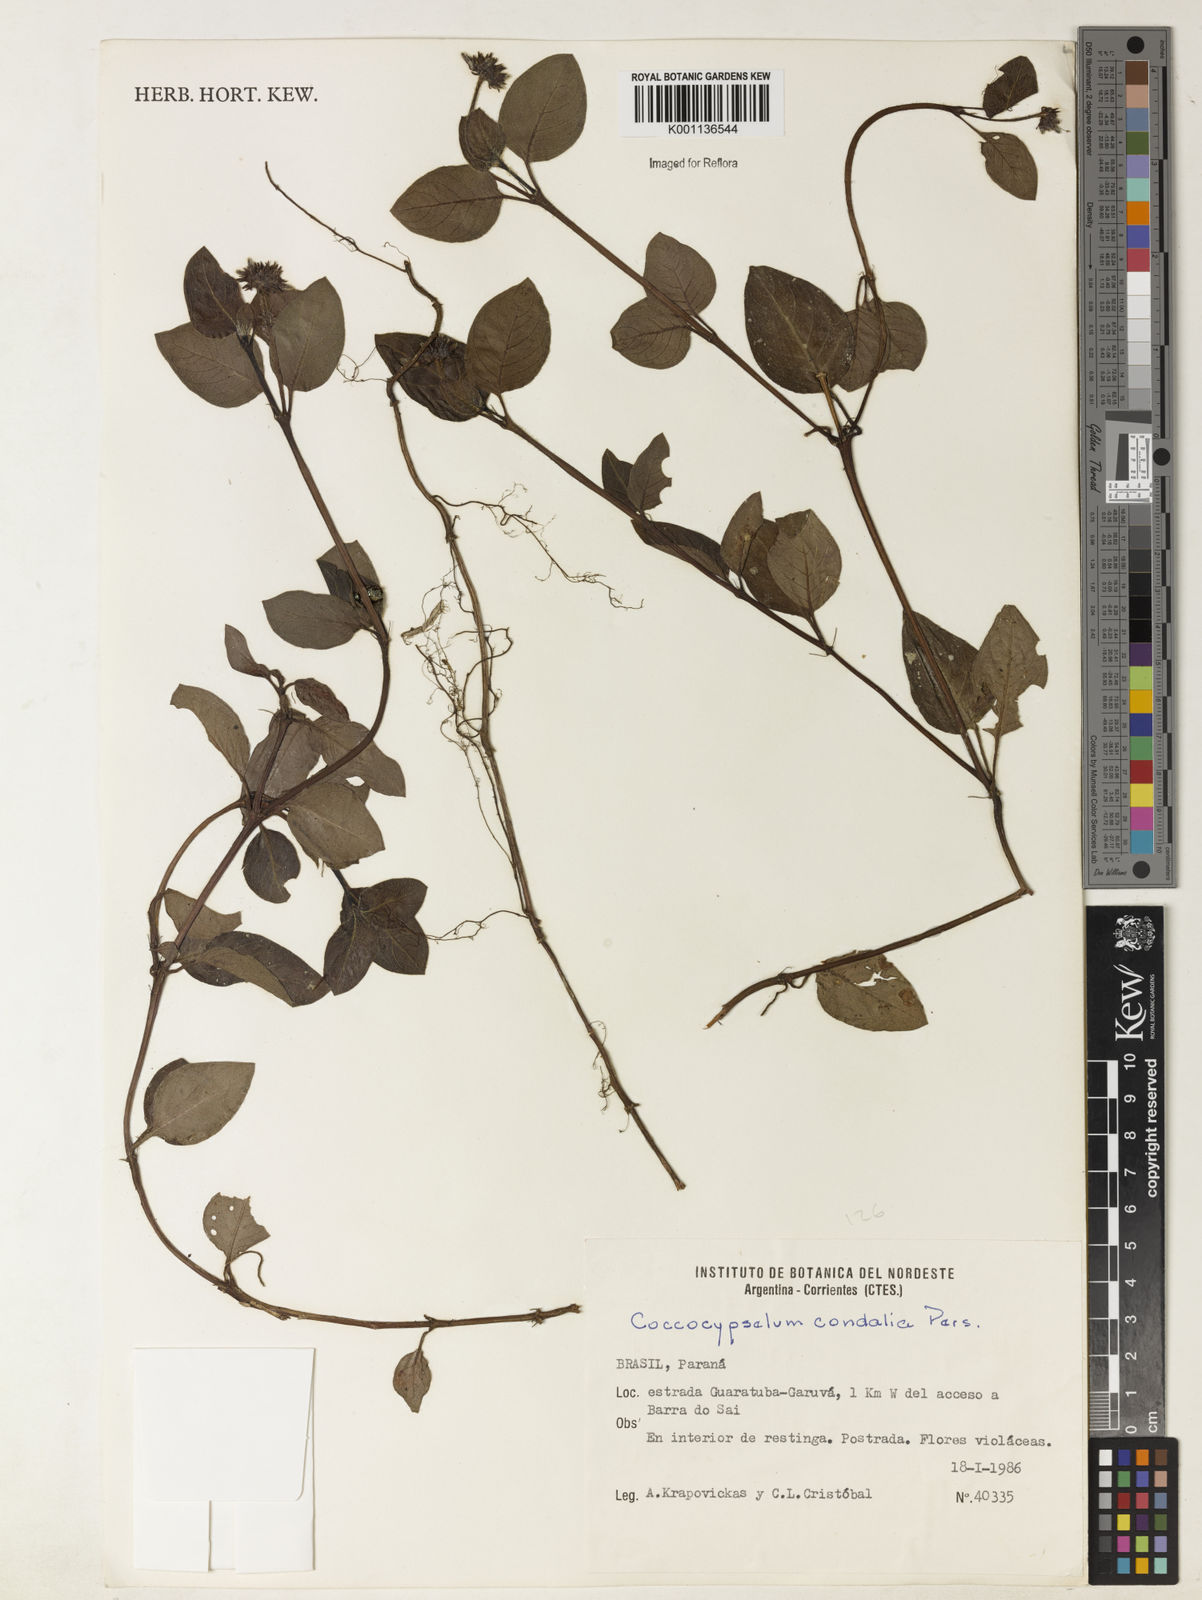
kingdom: Plantae
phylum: Tracheophyta
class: Magnoliopsida
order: Gentianales
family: Rubiaceae
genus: Coccocypselum
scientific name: Coccocypselum condalia
